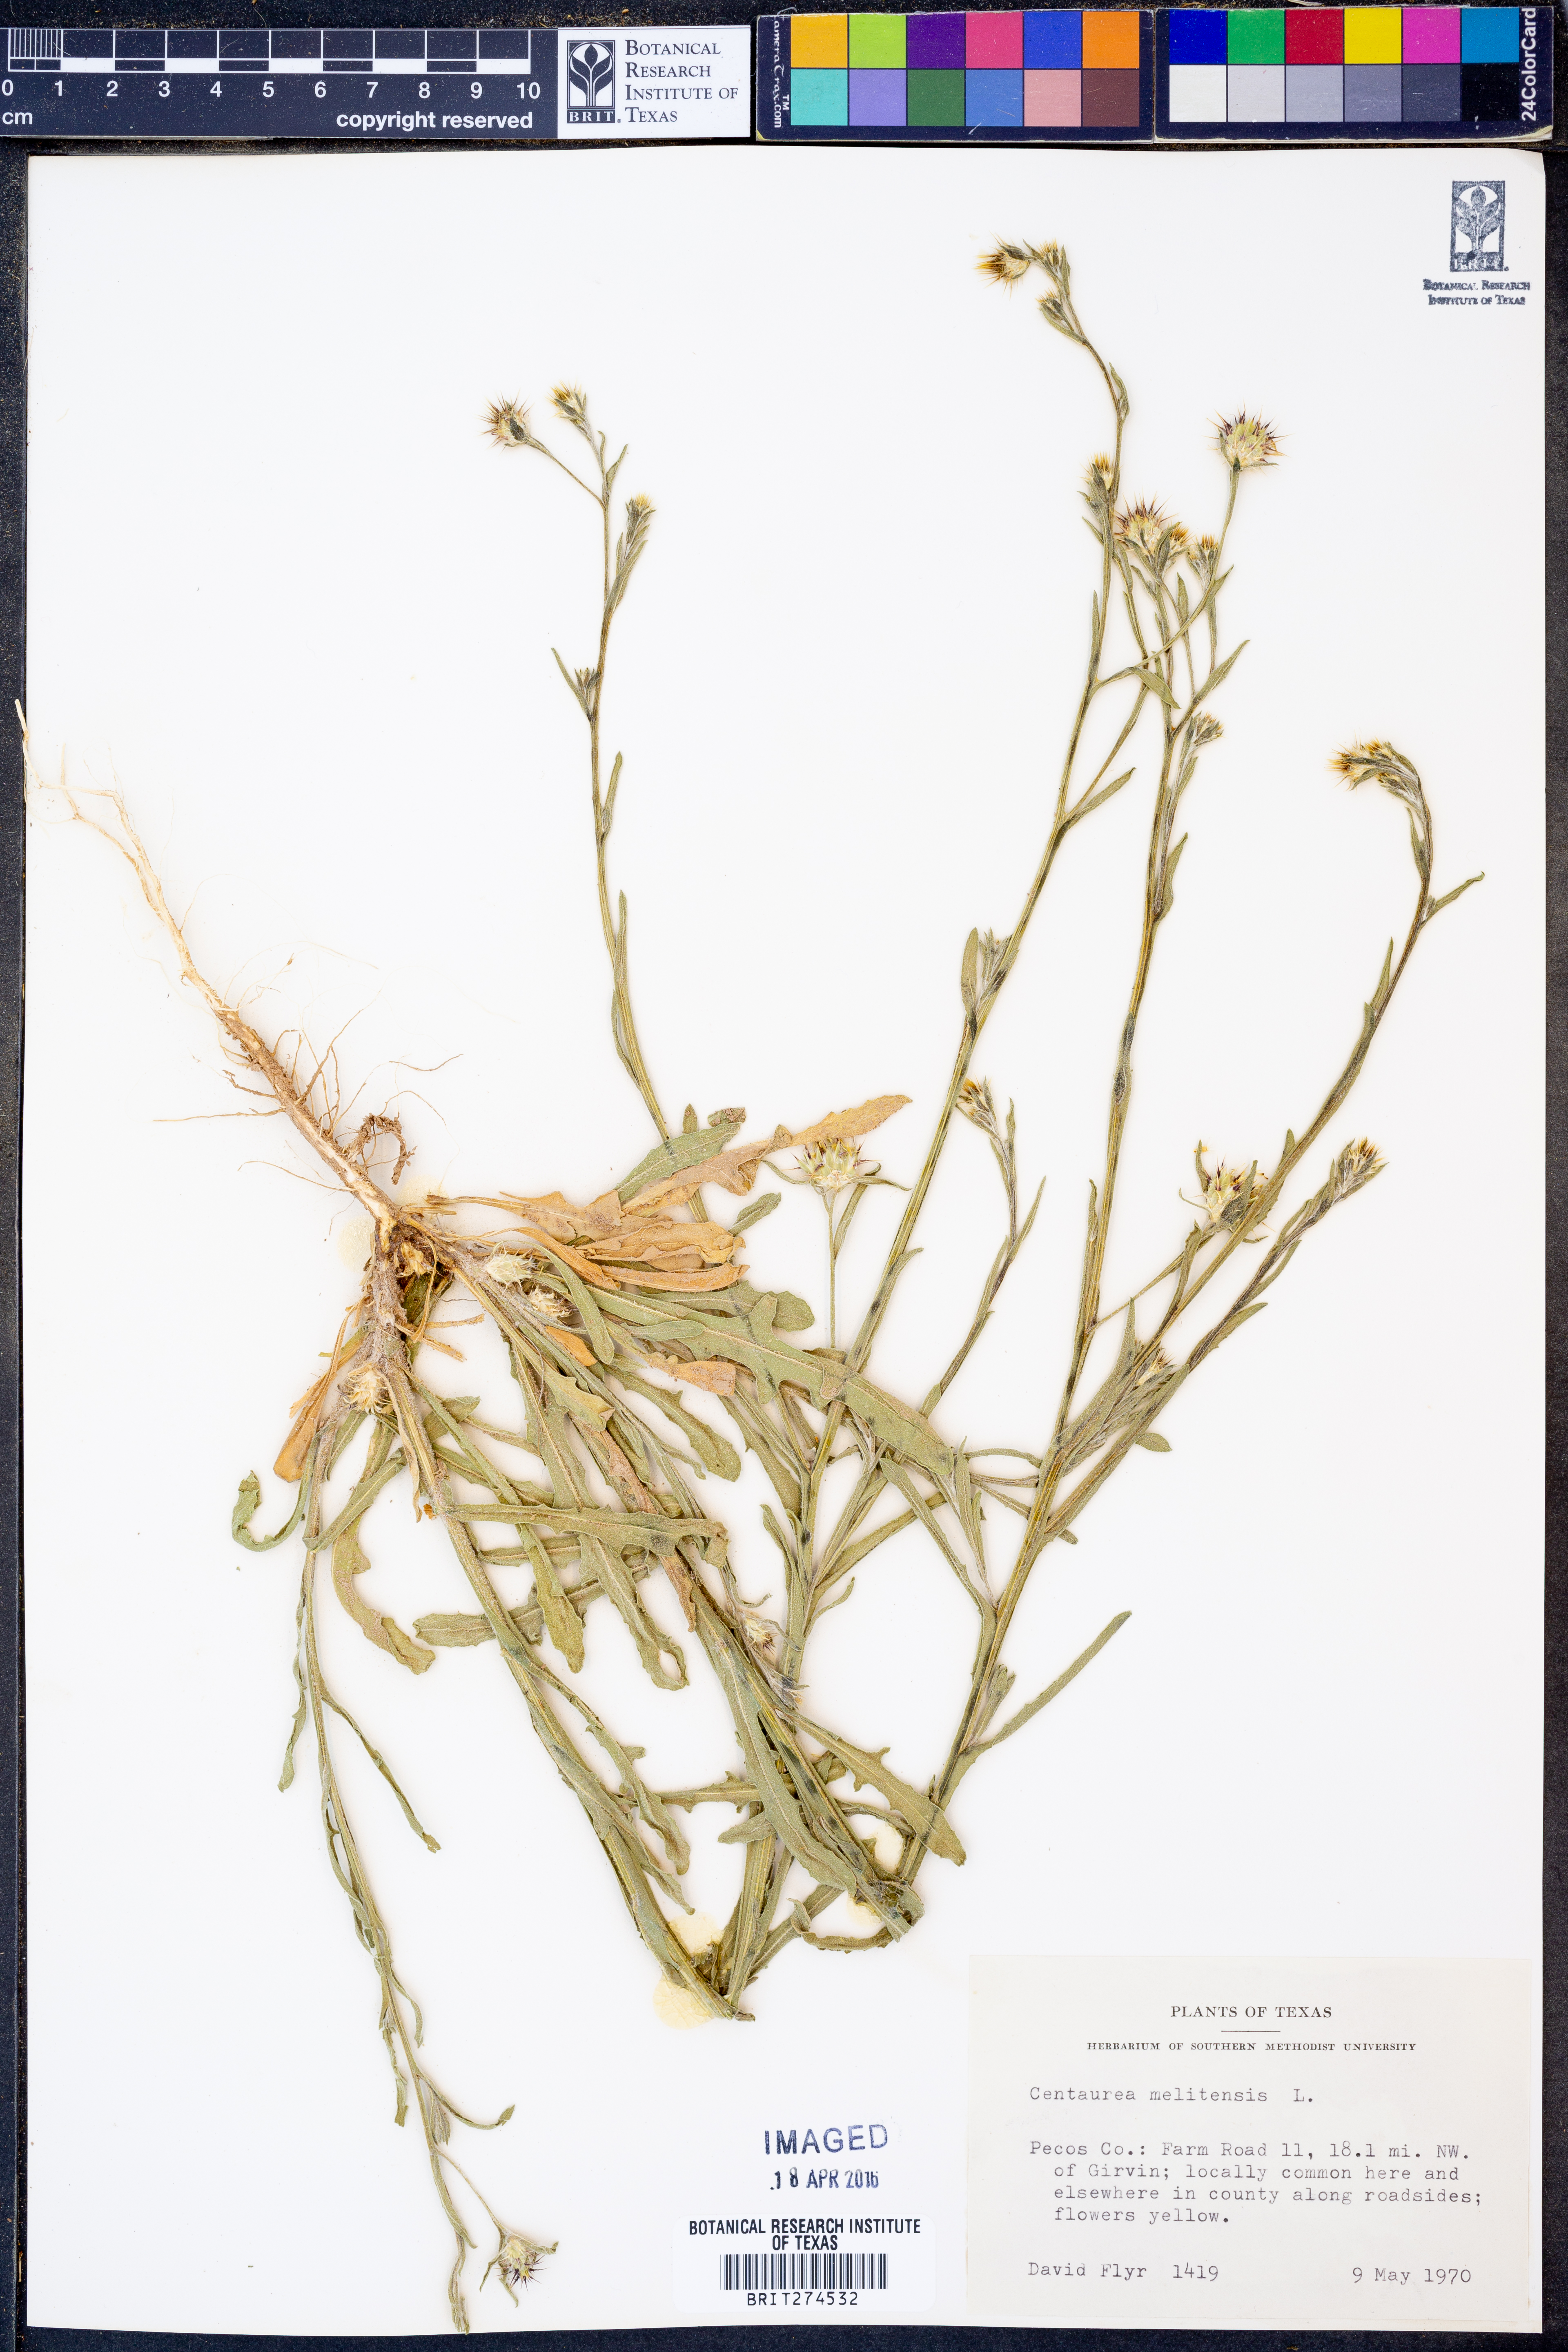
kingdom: Plantae
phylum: Tracheophyta
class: Magnoliopsida
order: Asterales
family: Asteraceae
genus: Centaurea
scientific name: Centaurea melitensis
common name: Maltese star-thistle
